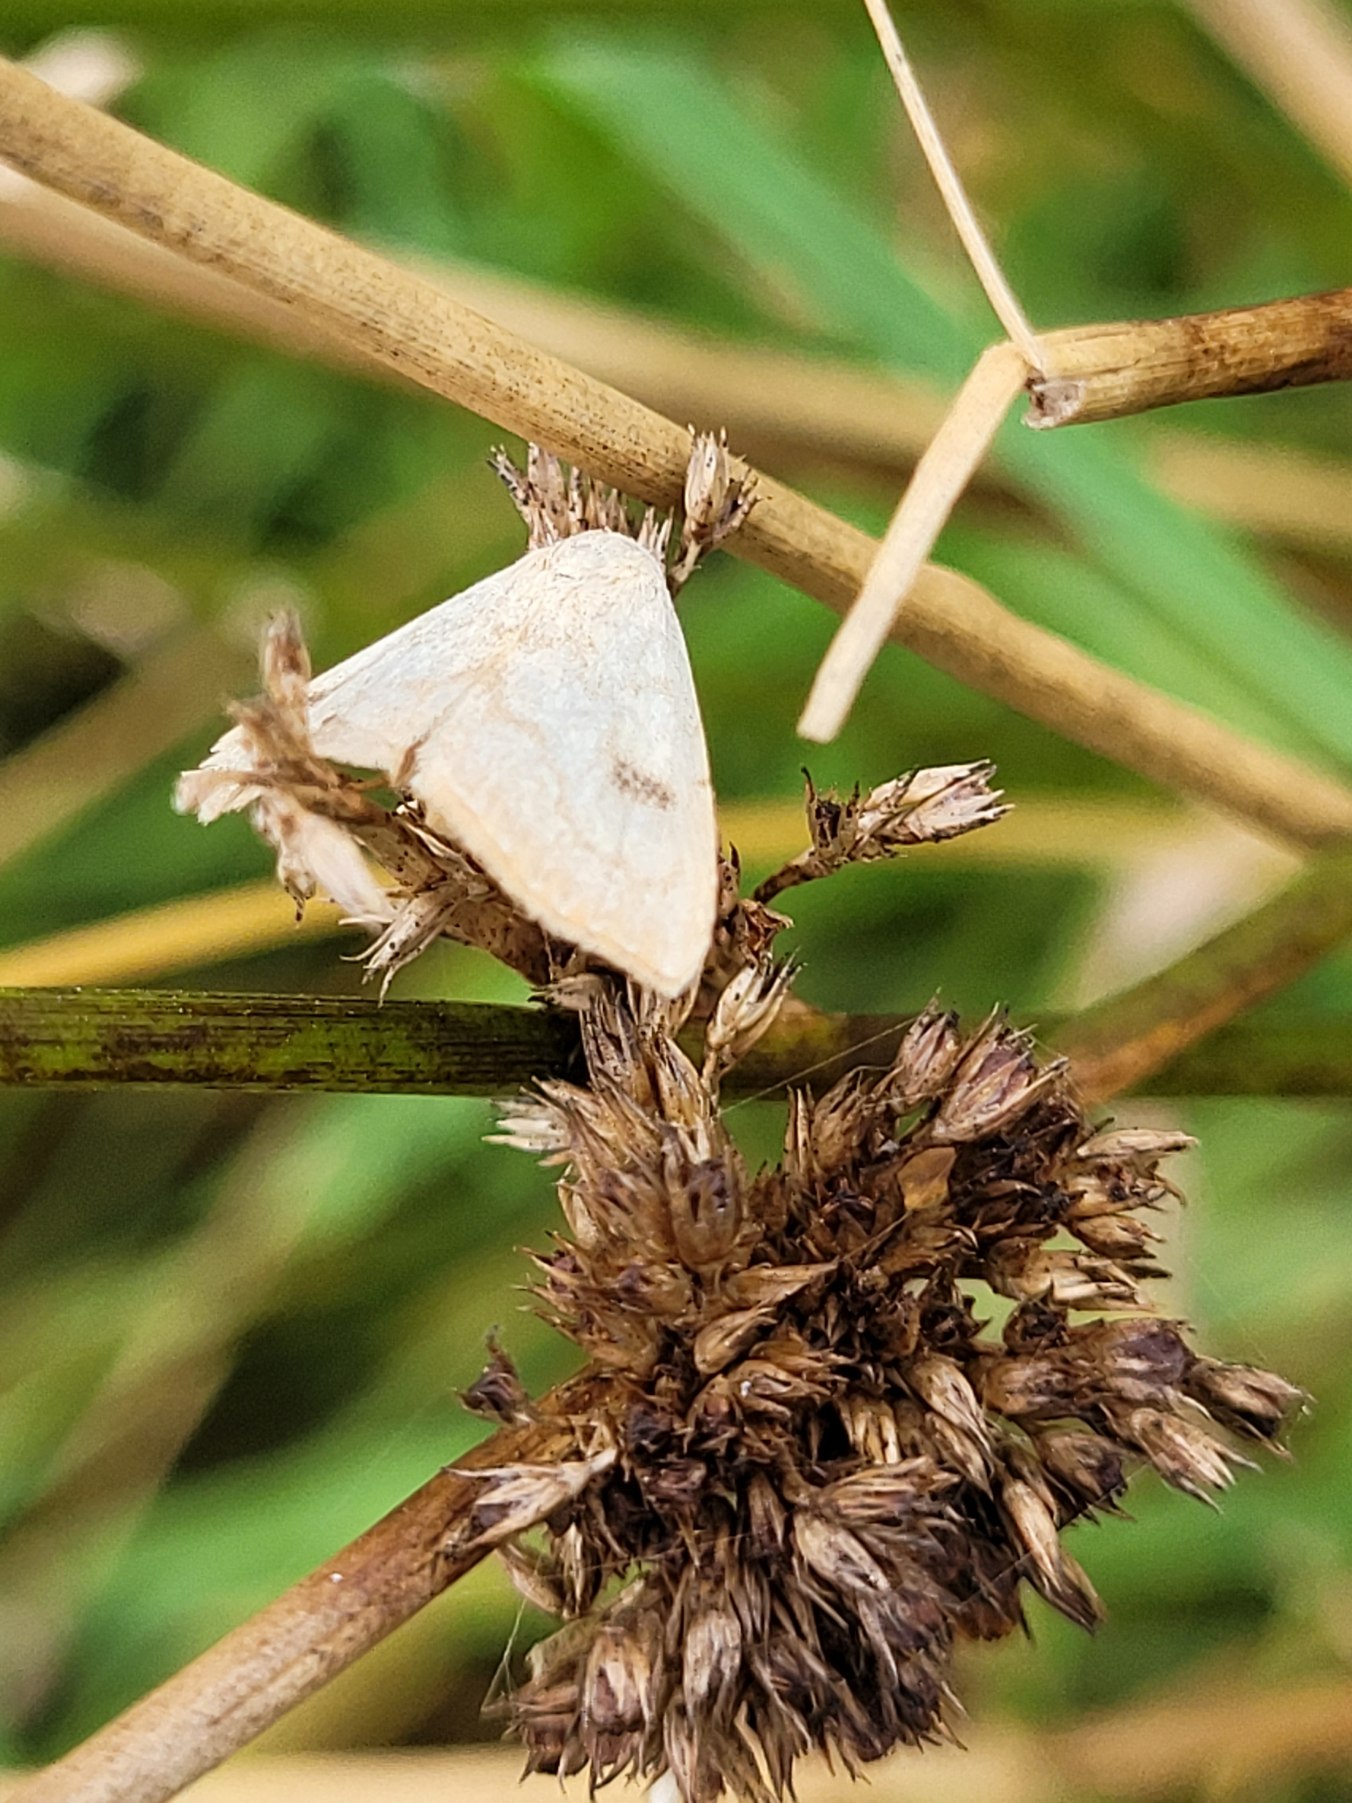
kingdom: Animalia
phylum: Arthropoda
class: Insecta
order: Lepidoptera
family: Erebidae
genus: Rivula
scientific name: Rivula sericealis
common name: Lille å-ugle
